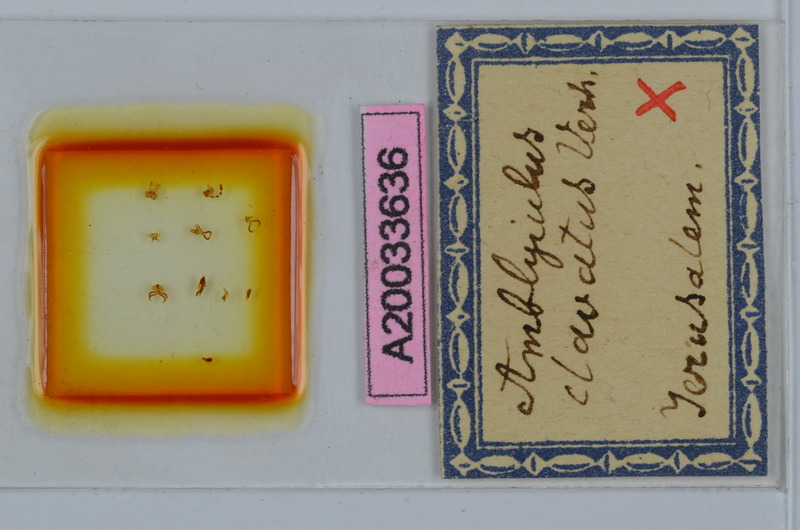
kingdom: Animalia
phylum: Arthropoda
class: Diplopoda
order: Julida
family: Julidae
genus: Dolichoiulus
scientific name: Dolichoiulus clavatus
